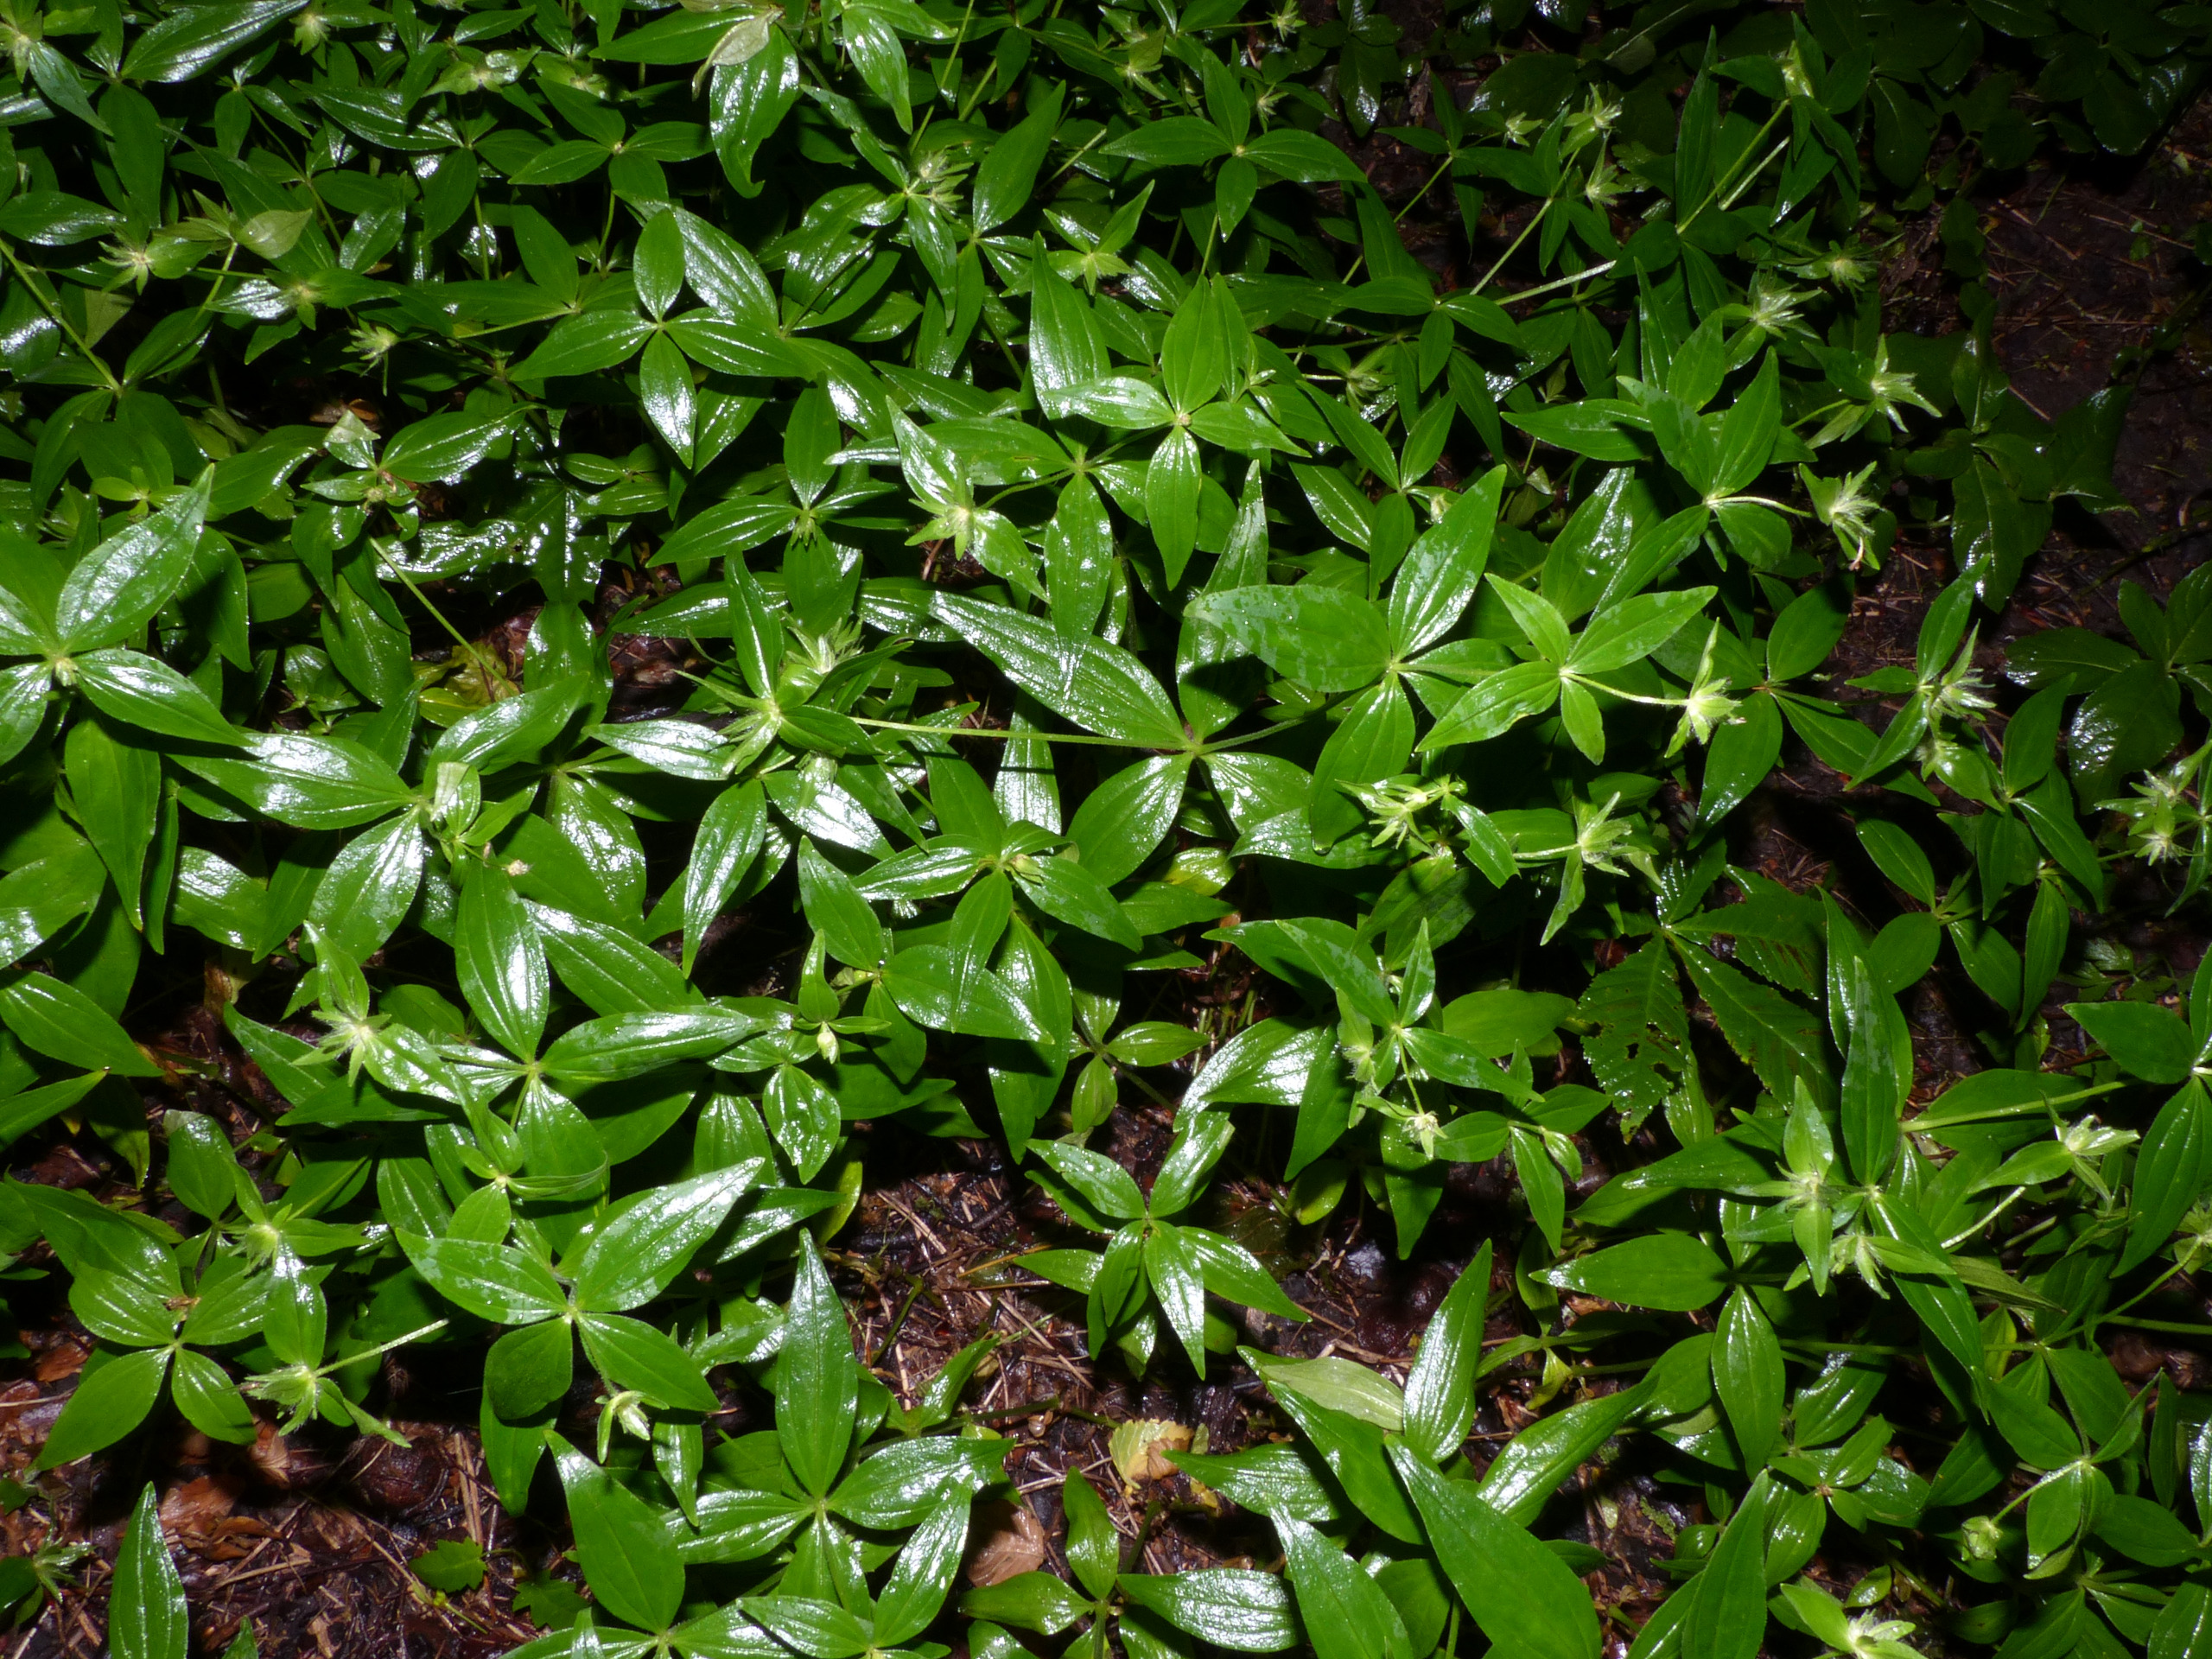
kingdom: Plantae
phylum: Tracheophyta
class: Magnoliopsida
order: Gentianales
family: Rubiaceae
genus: Asperula
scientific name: Asperula taurina
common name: Kaukasisk mysike
